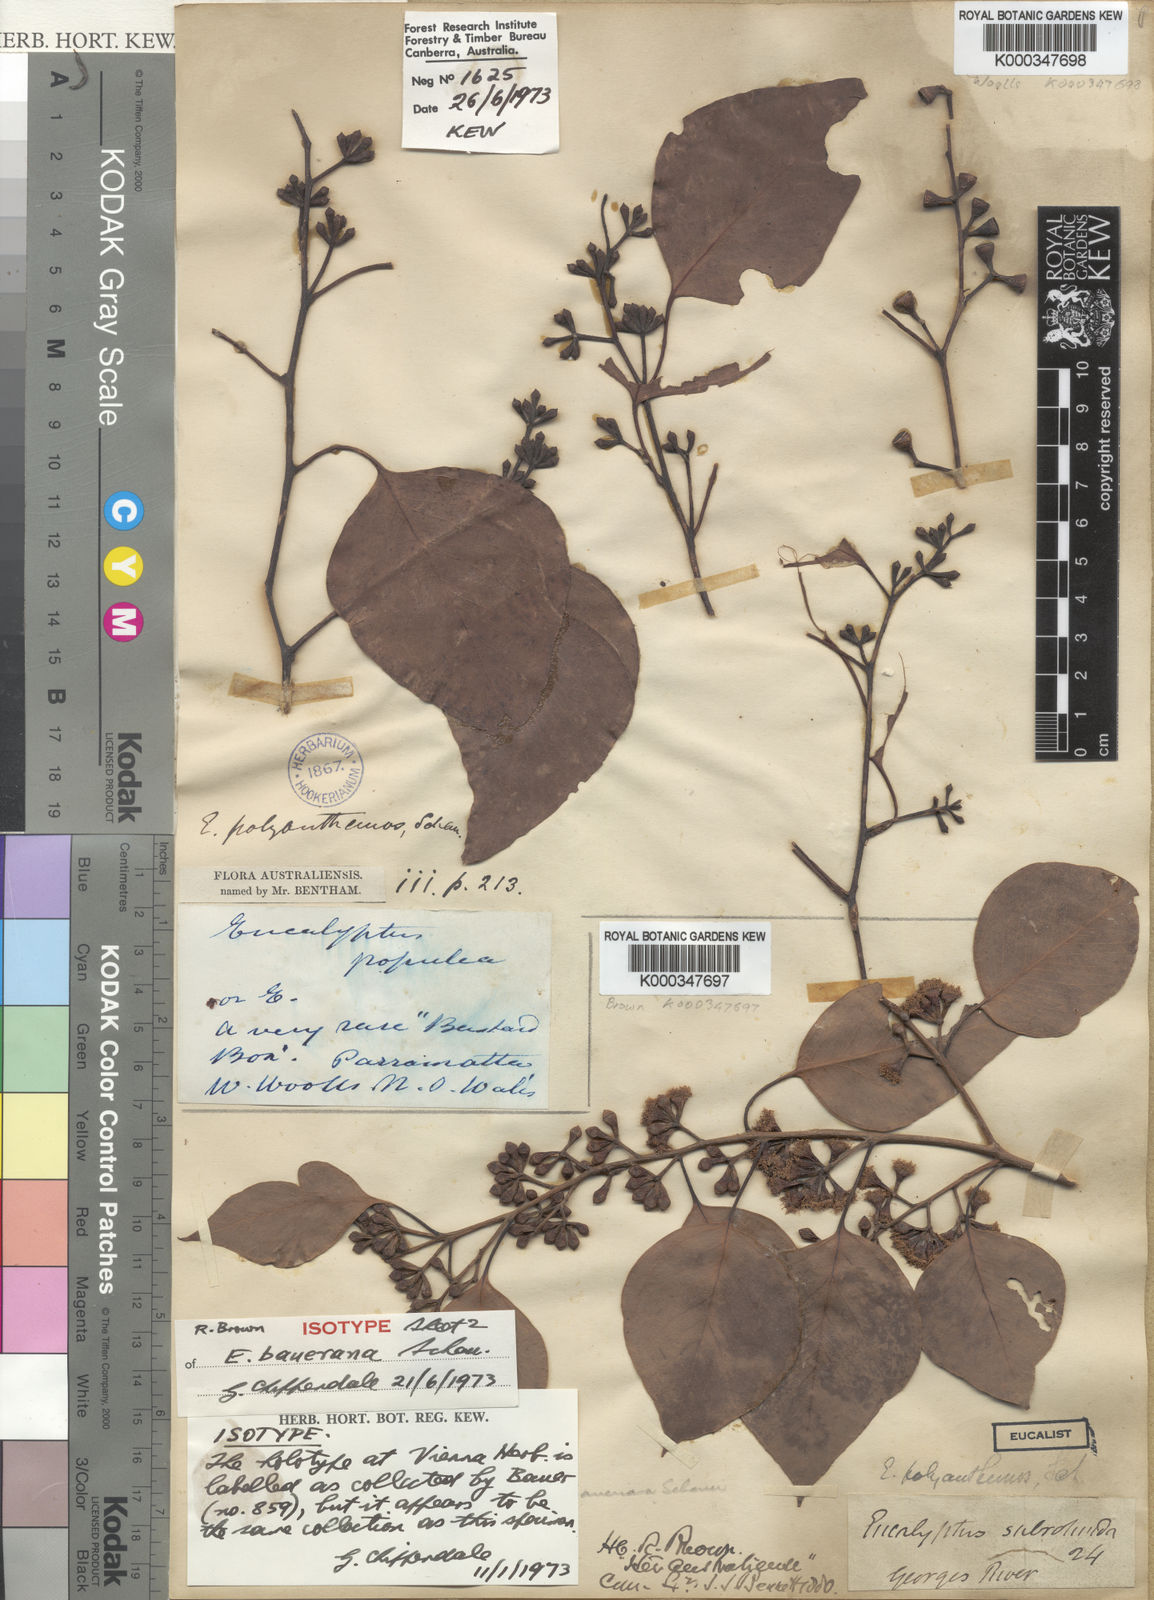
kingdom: Plantae
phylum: Tracheophyta
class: Magnoliopsida
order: Myrtales
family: Myrtaceae
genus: Eucalyptus
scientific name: Eucalyptus baueriana
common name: Round-leaf-box
